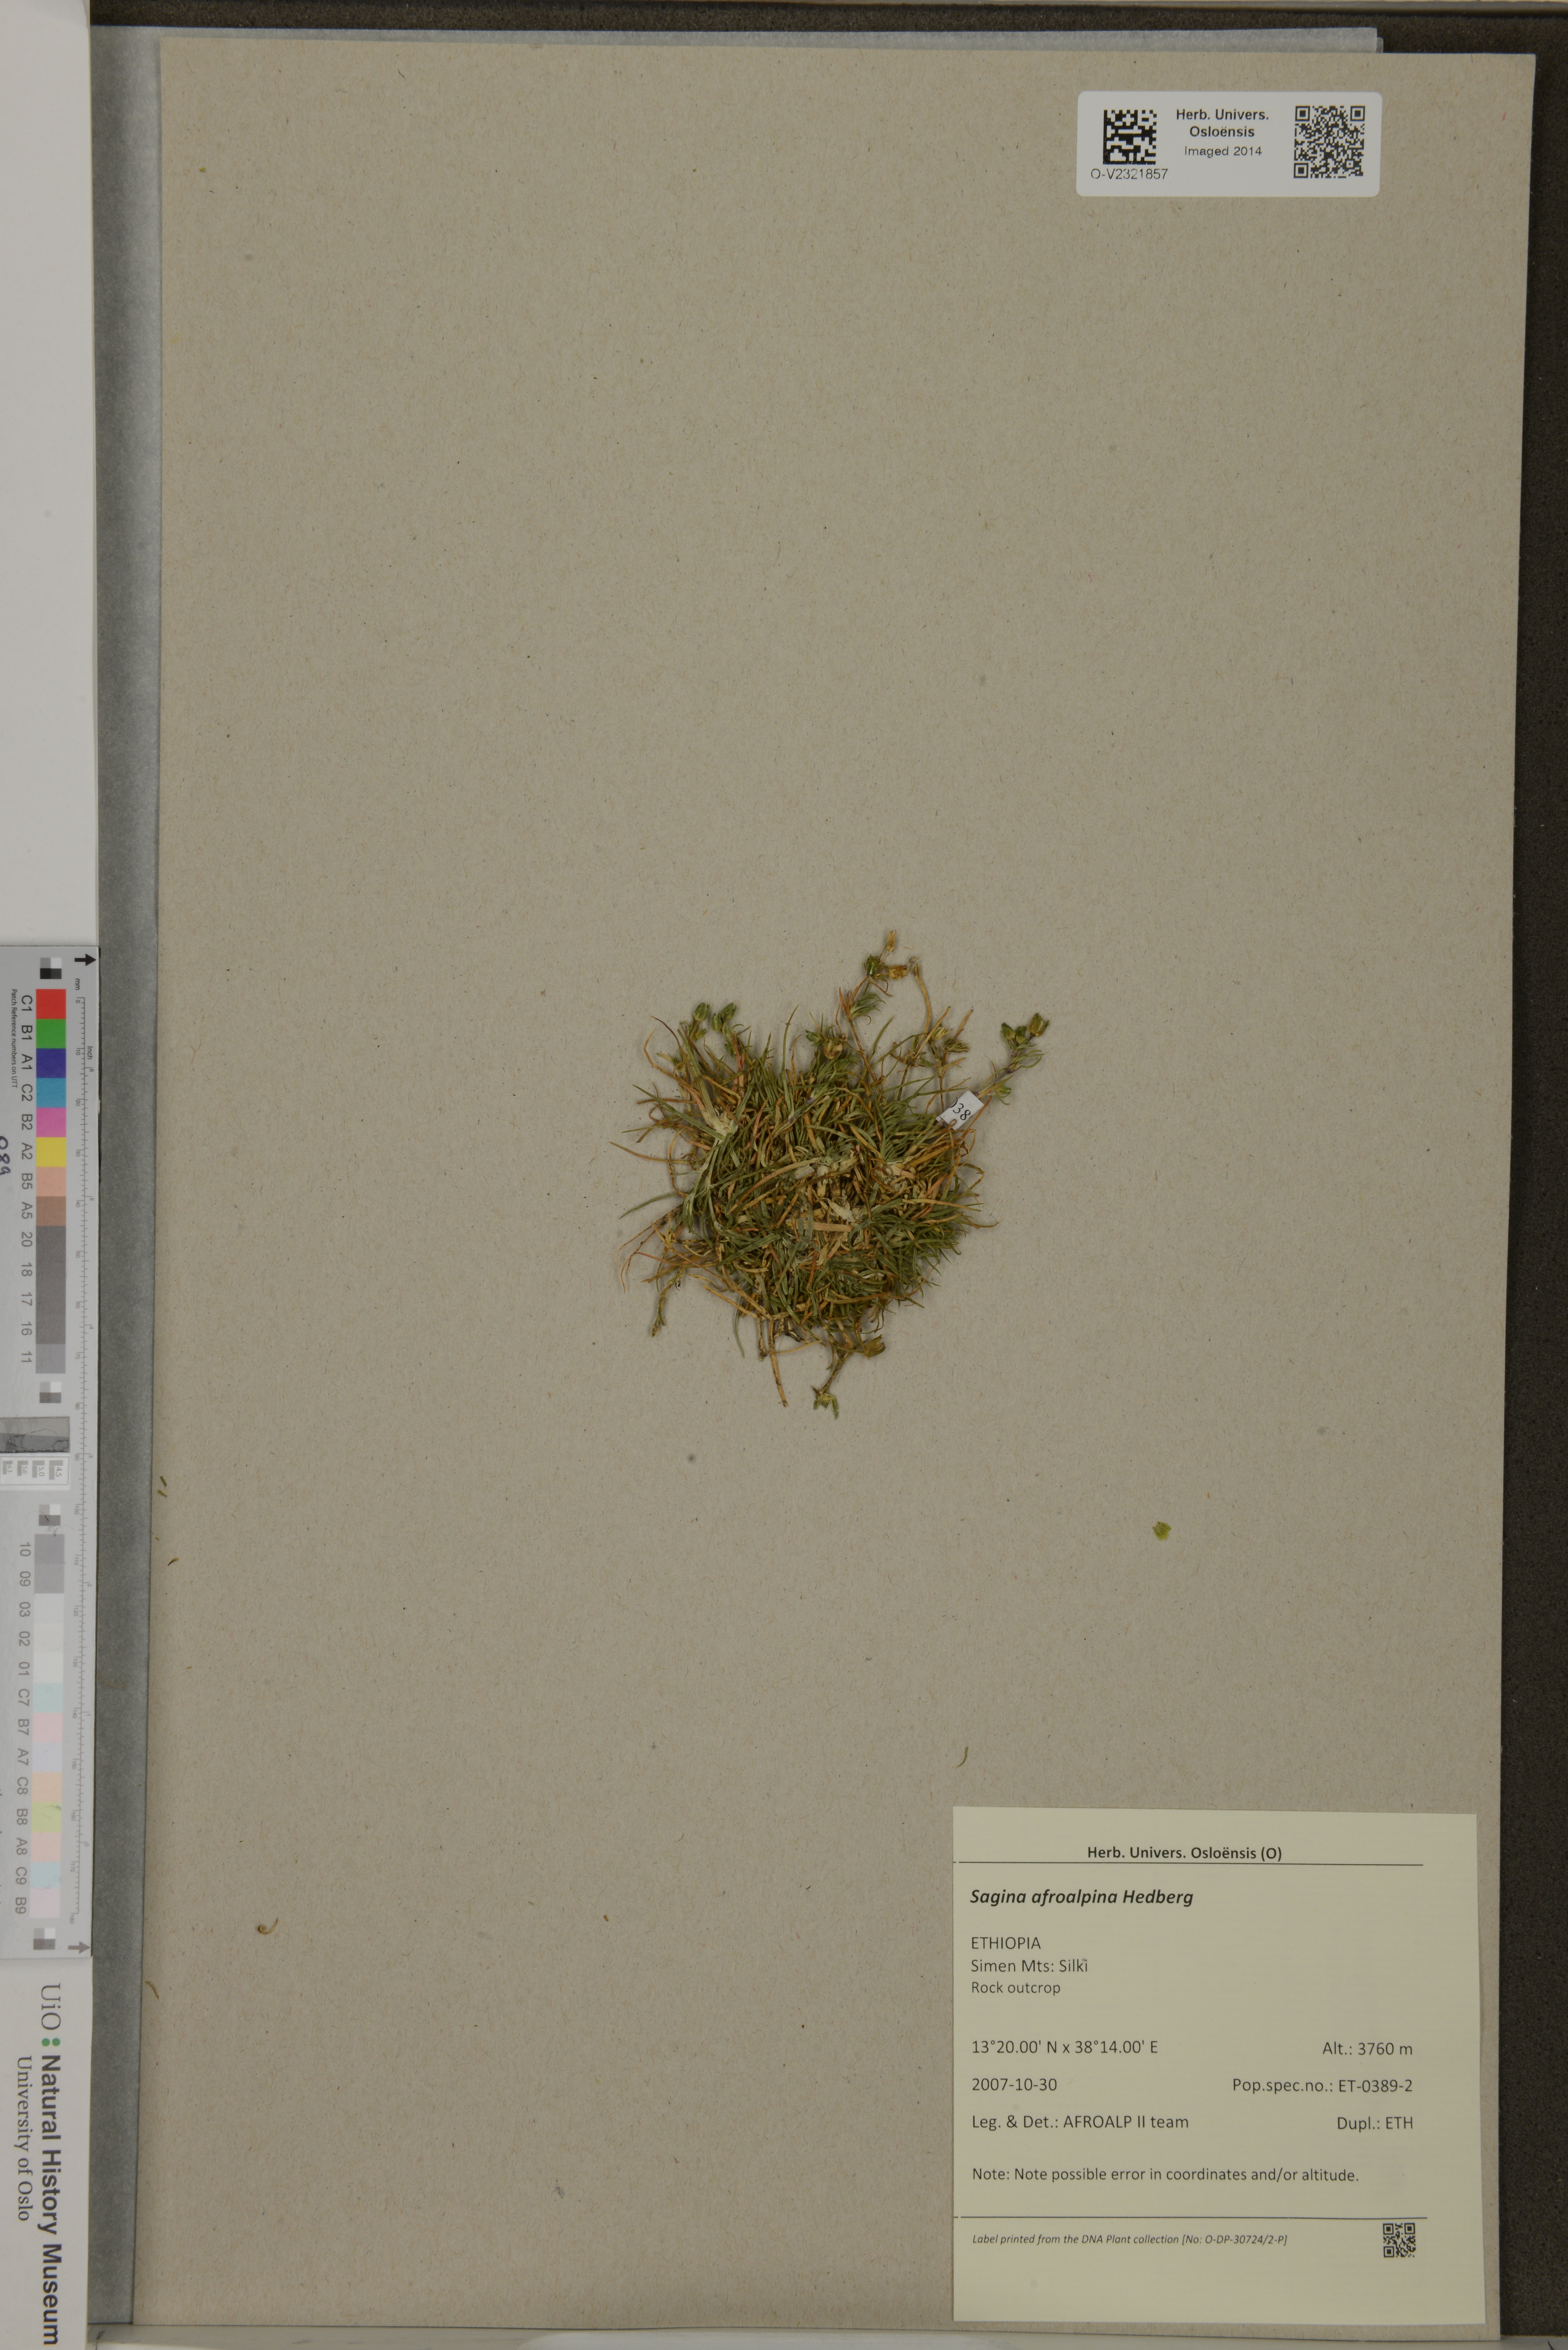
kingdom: Plantae
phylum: Tracheophyta
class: Magnoliopsida
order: Caryophyllales
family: Caryophyllaceae
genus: Sagina
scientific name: Sagina afroalpina
